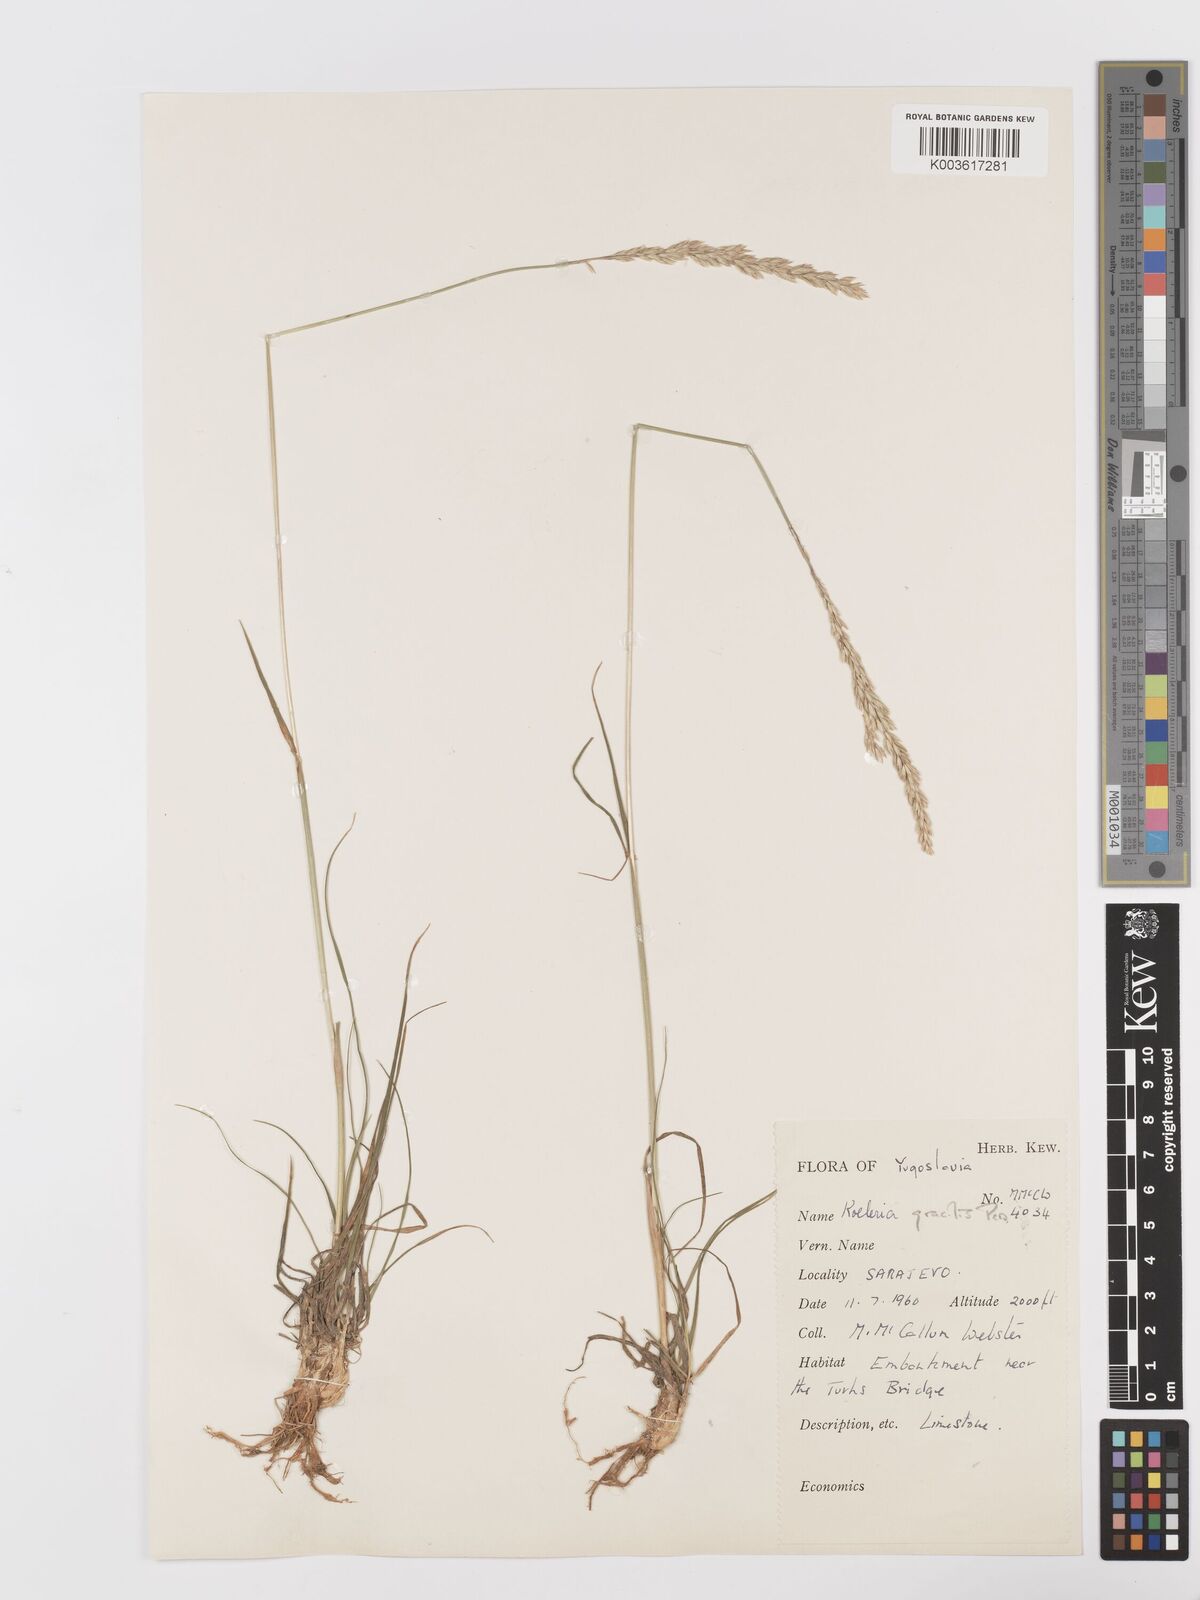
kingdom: Plantae
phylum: Tracheophyta
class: Liliopsida
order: Poales
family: Poaceae
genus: Koeleria
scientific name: Koeleria macrantha
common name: Crested hair-grass
